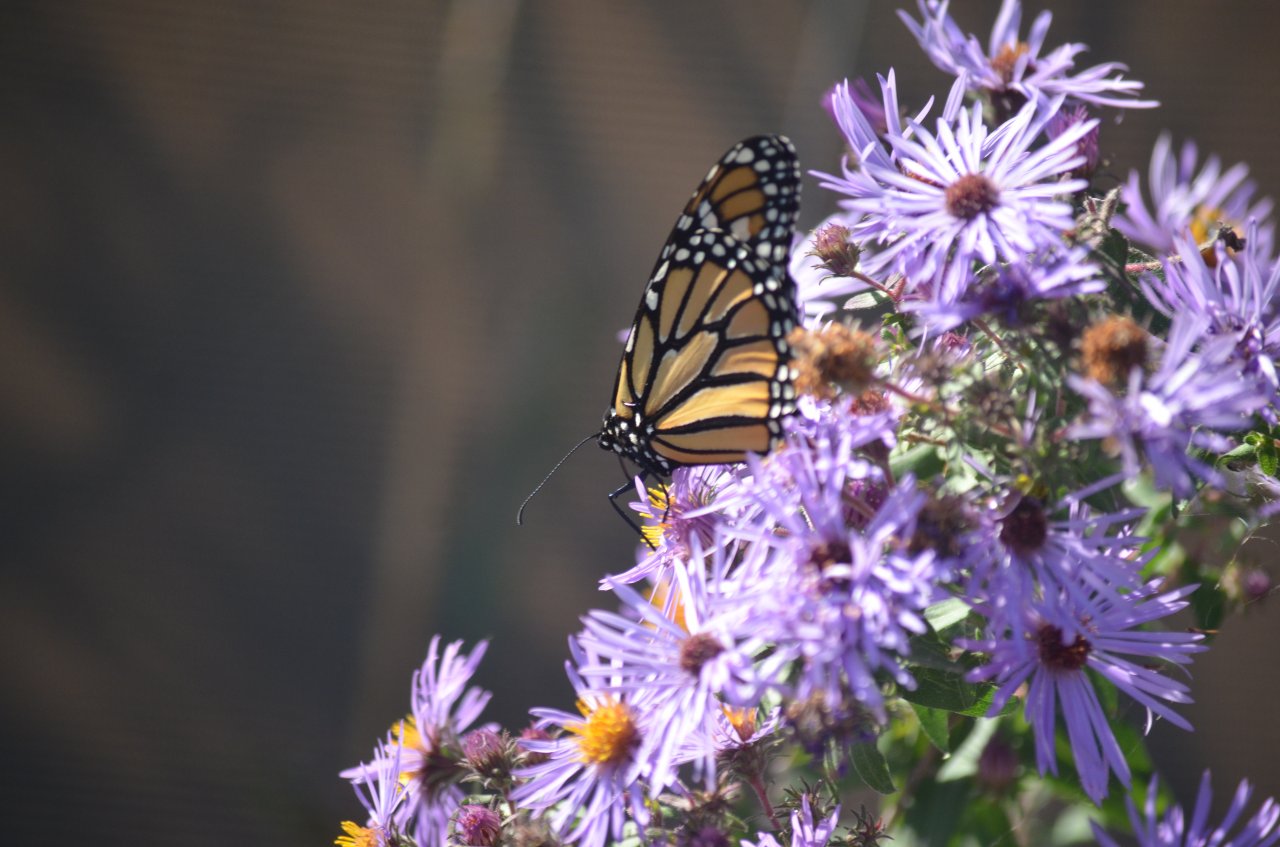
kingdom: Animalia
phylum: Arthropoda
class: Insecta
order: Lepidoptera
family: Nymphalidae
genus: Danaus
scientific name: Danaus plexippus
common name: Monarch
